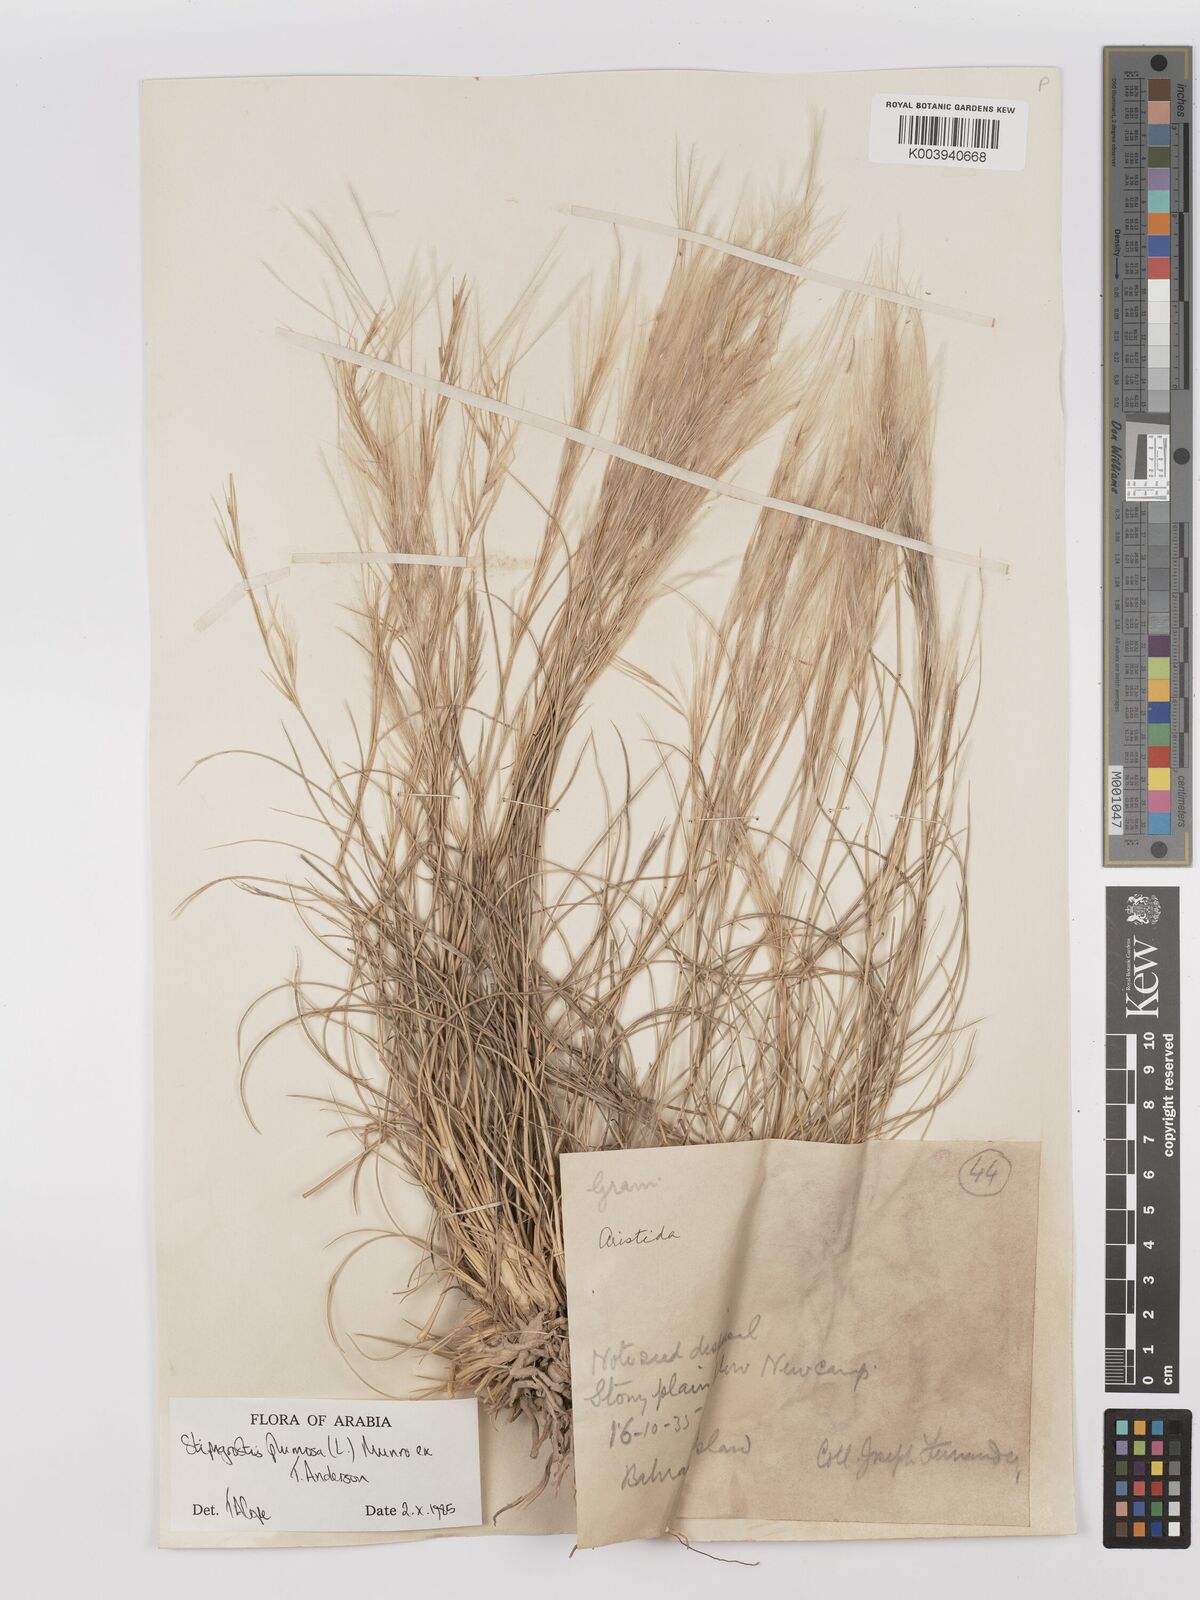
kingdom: Plantae
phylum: Tracheophyta
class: Liliopsida
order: Poales
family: Poaceae
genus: Stipagrostis
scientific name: Stipagrostis plumosa
